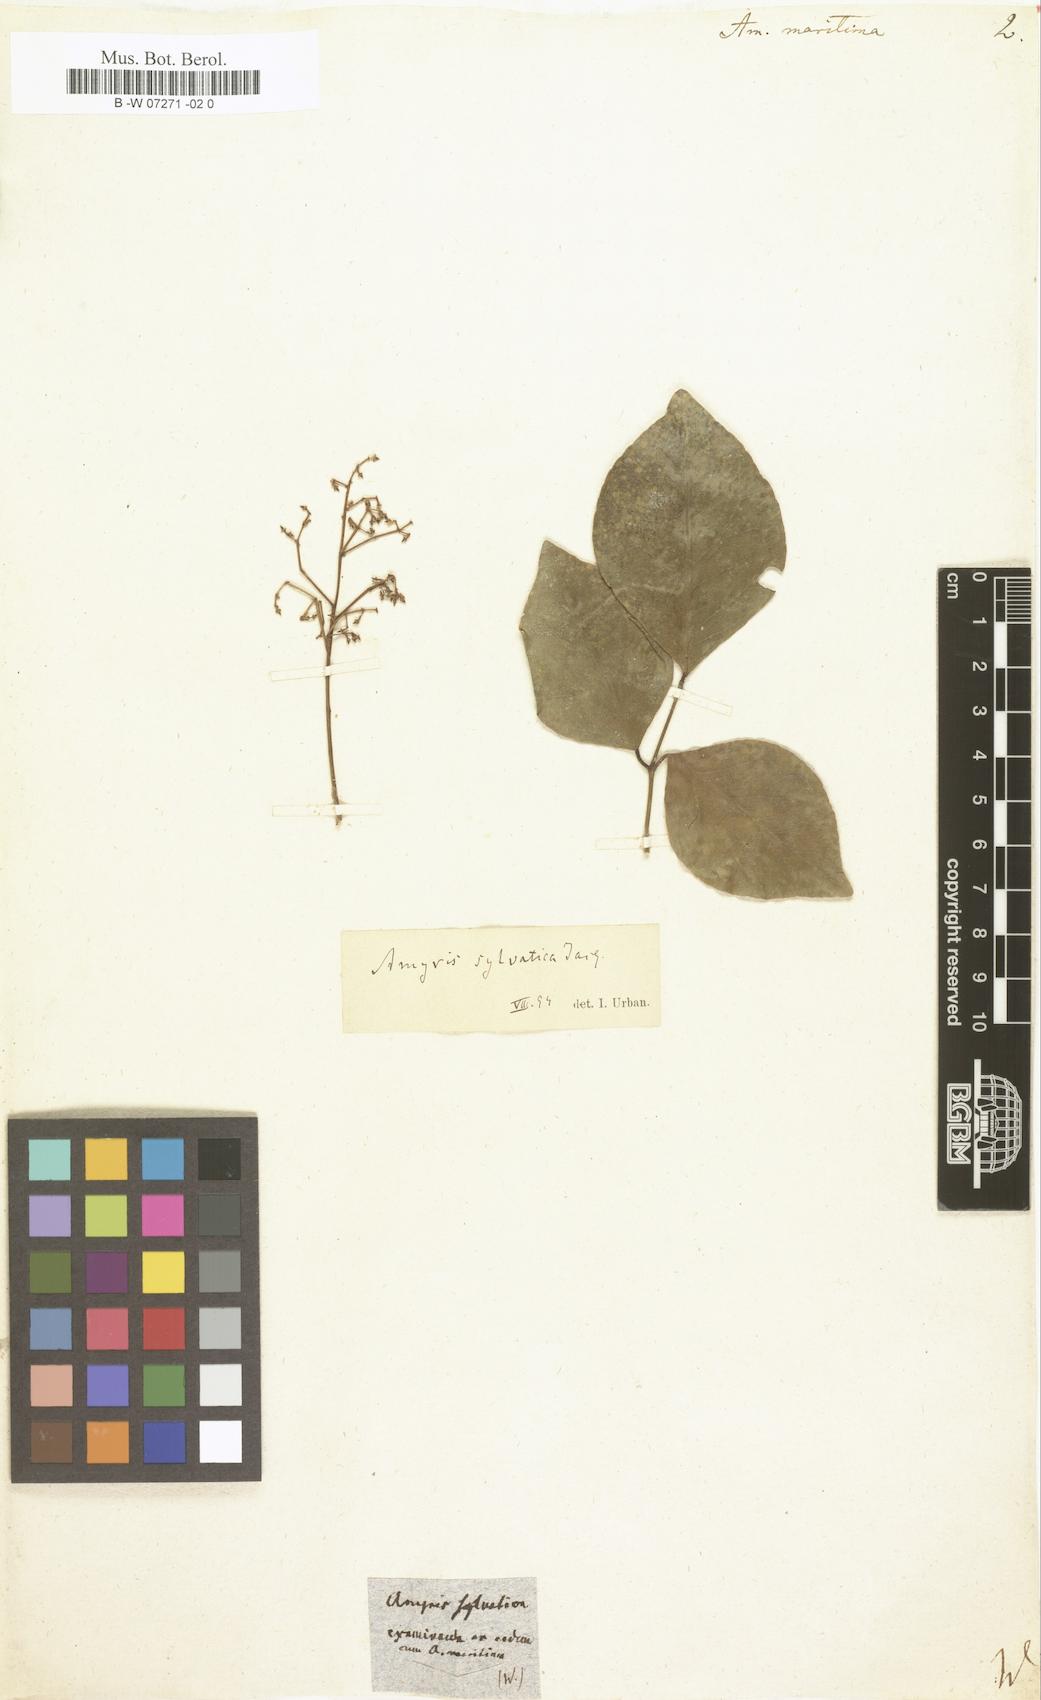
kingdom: Plantae
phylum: Tracheophyta
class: Magnoliopsida
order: Sapindales
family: Rutaceae
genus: Amyris
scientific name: Amyris elemifera
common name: Sea amyris
